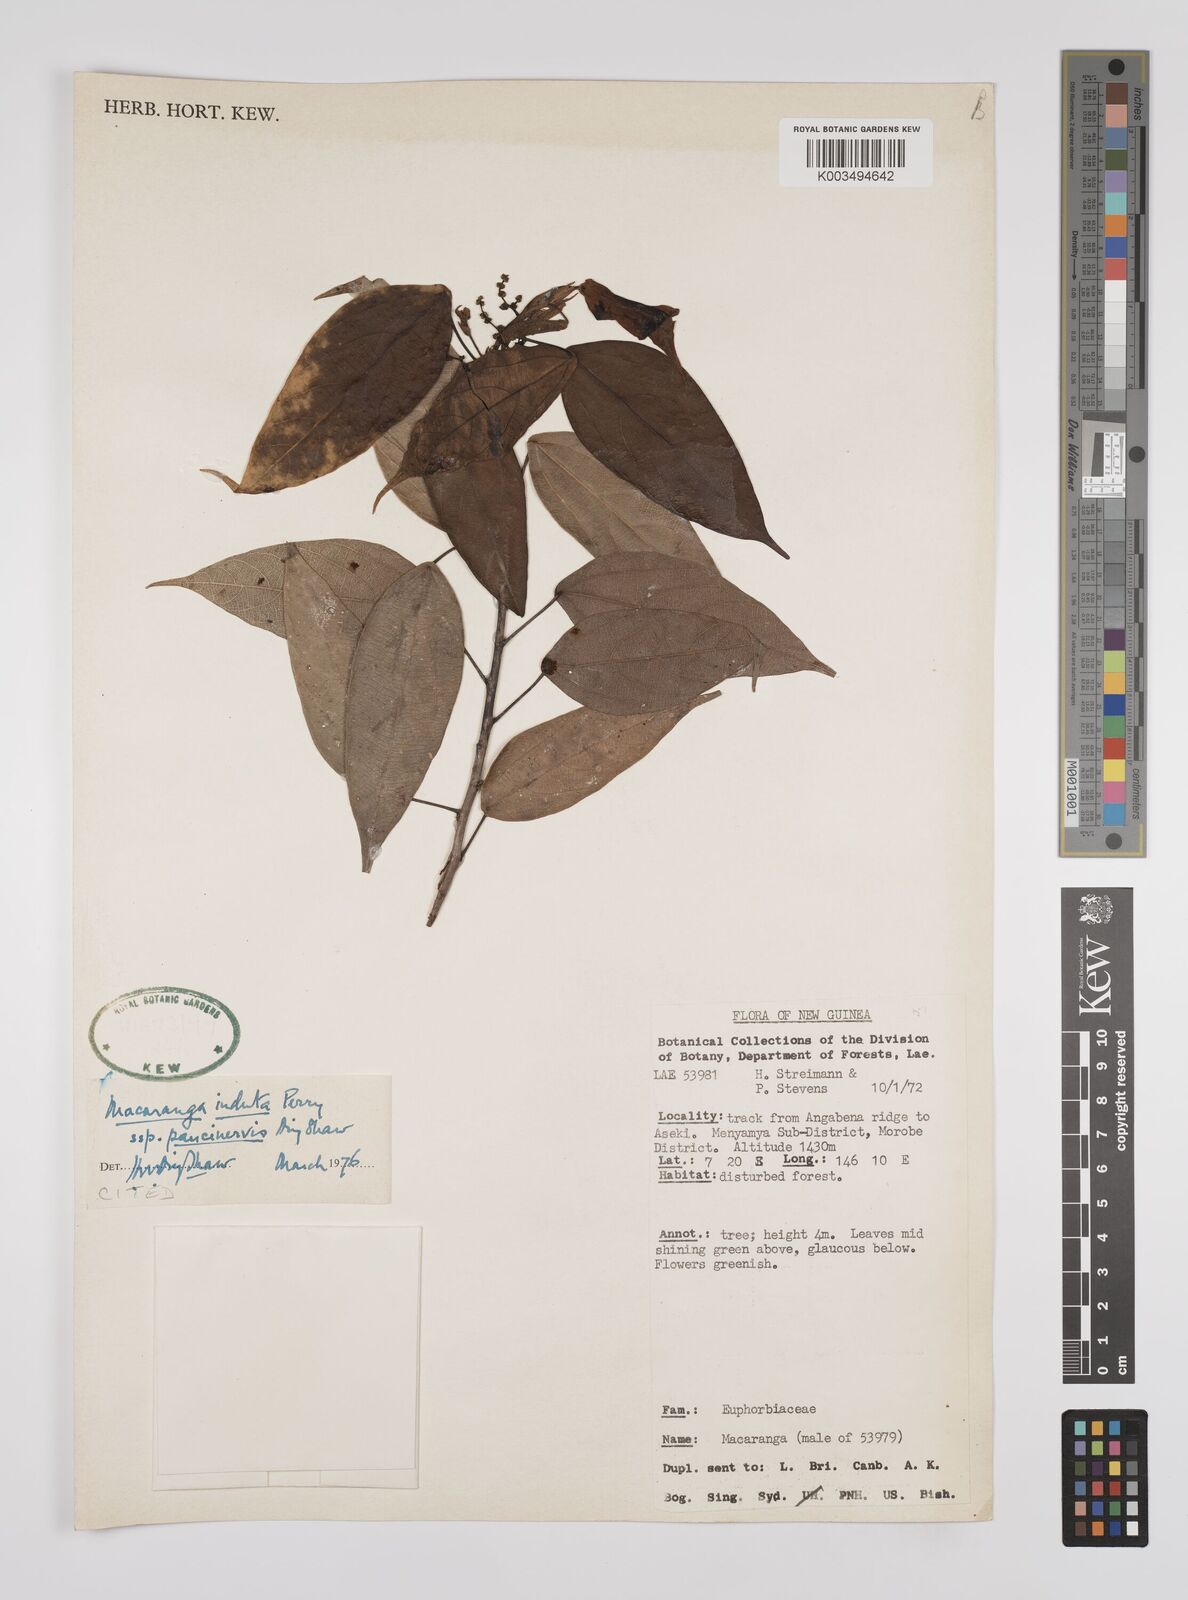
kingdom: Plantae
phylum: Tracheophyta
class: Magnoliopsida
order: Malpighiales
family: Euphorbiaceae
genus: Macaranga
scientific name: Macaranga induta
